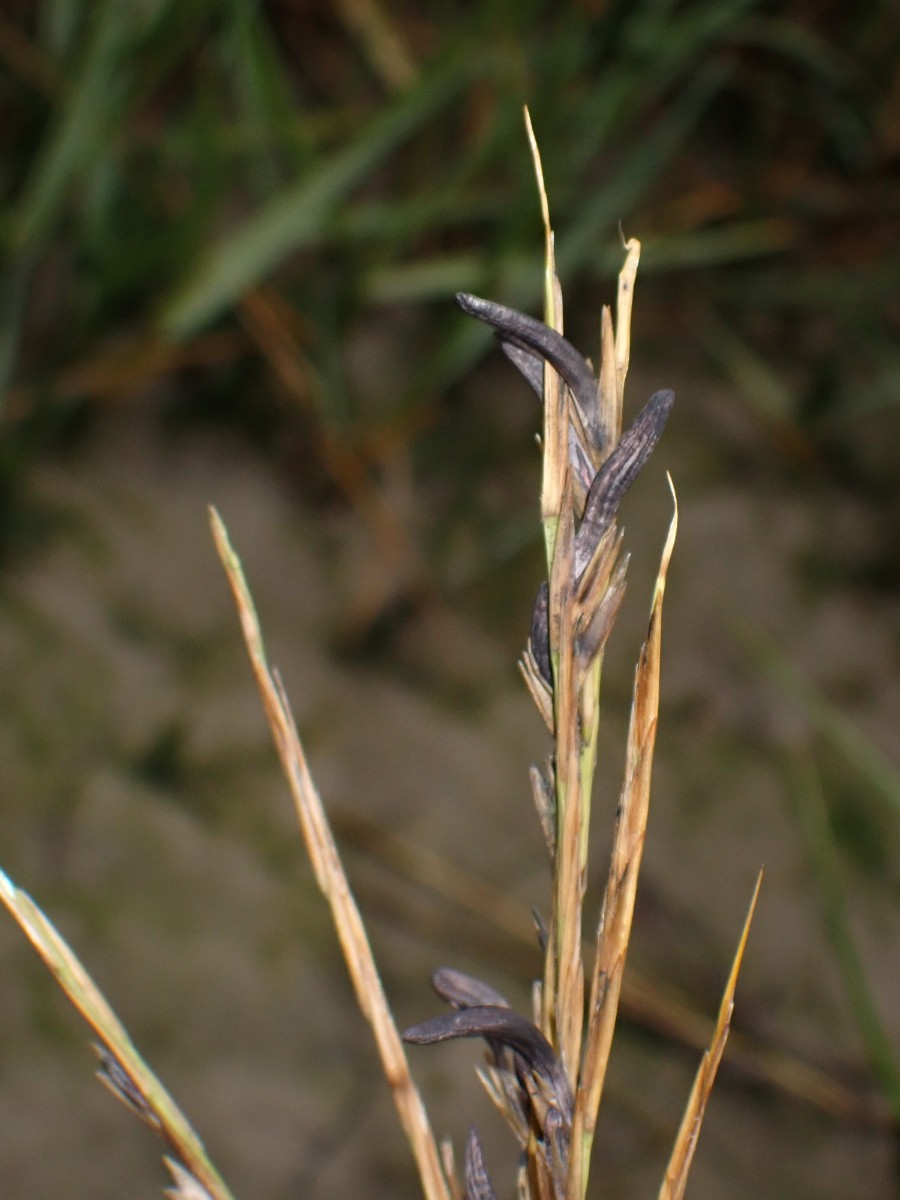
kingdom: Fungi
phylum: Ascomycota
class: Sordariomycetes
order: Hypocreales
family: Clavicipitaceae
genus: Claviceps
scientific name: Claviceps purpurea
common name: almindelig meldrøjer
